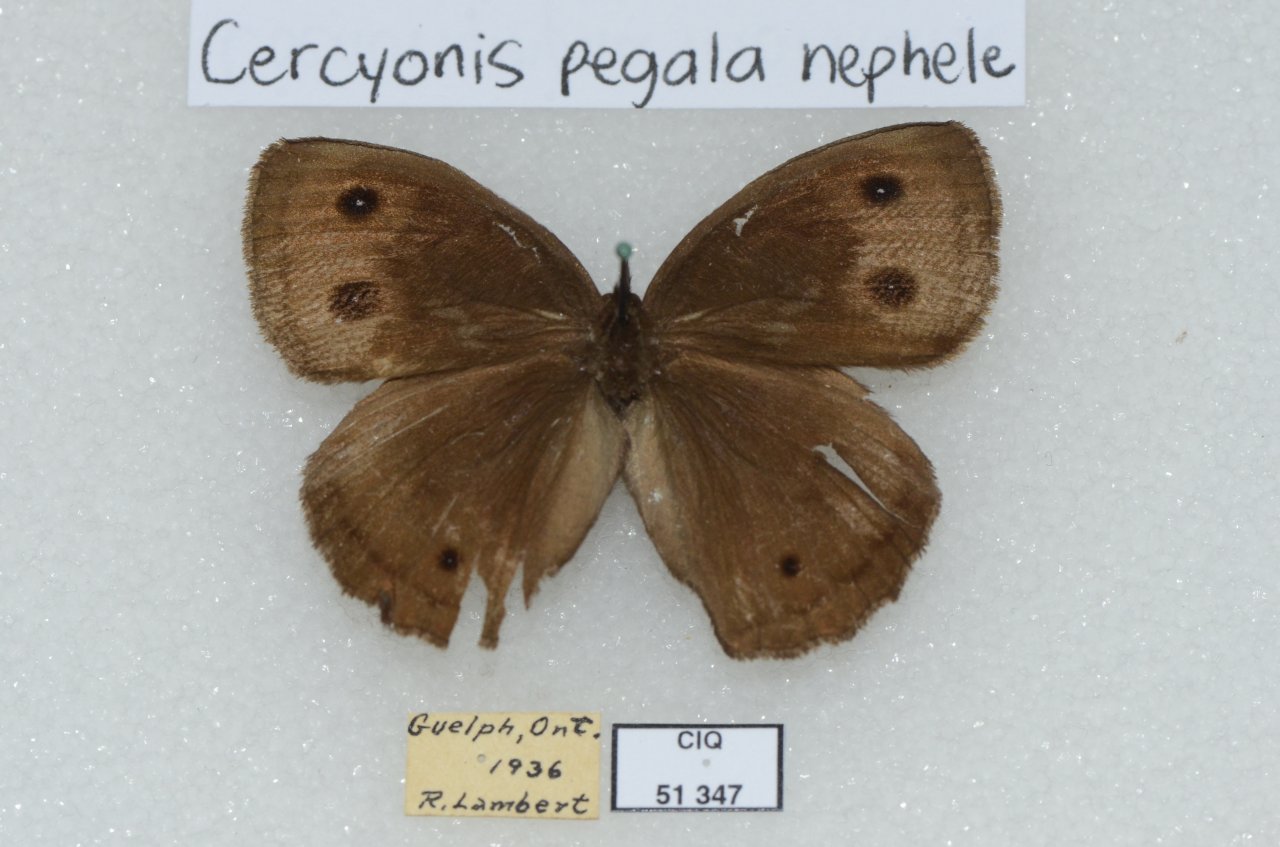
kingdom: Animalia
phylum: Arthropoda
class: Insecta
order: Lepidoptera
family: Nymphalidae
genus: Cercyonis
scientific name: Cercyonis pegala
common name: Common Wood-Nymph
